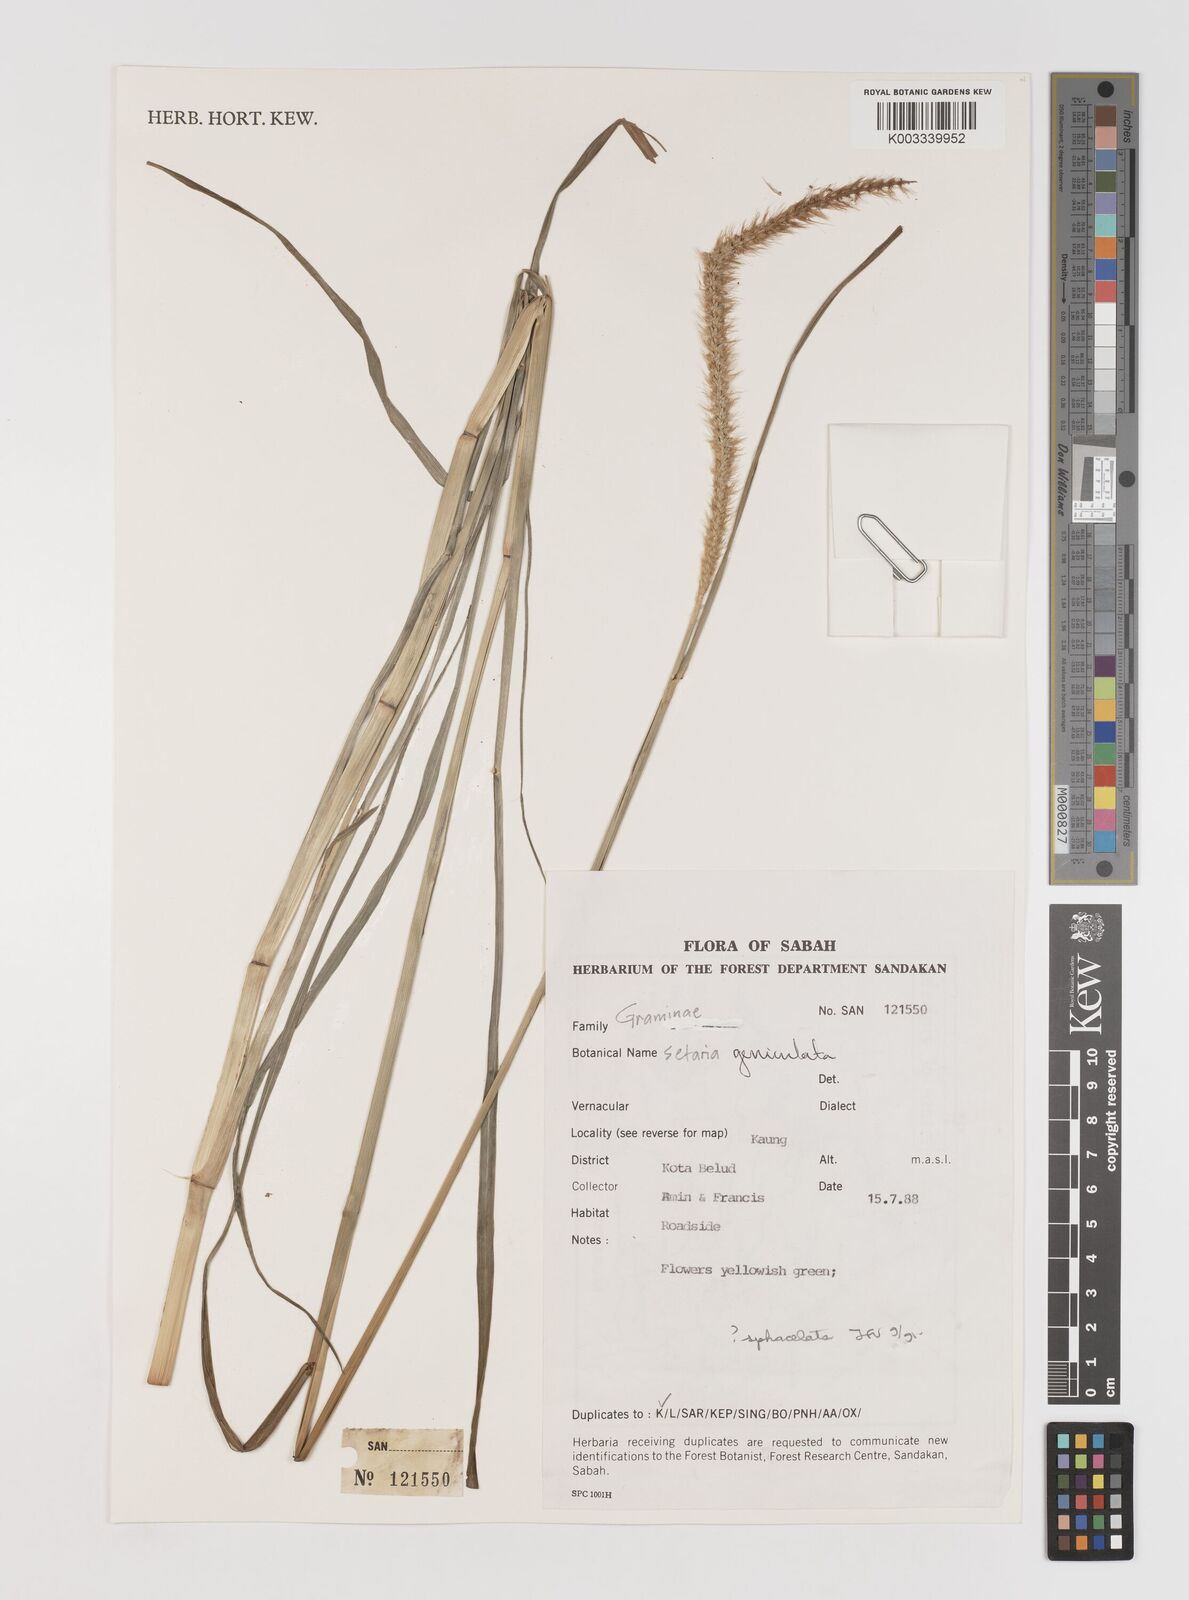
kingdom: Plantae
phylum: Tracheophyta
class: Liliopsida
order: Poales
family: Poaceae
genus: Setaria
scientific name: Setaria parviflora
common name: Knotroot bristle-grass
